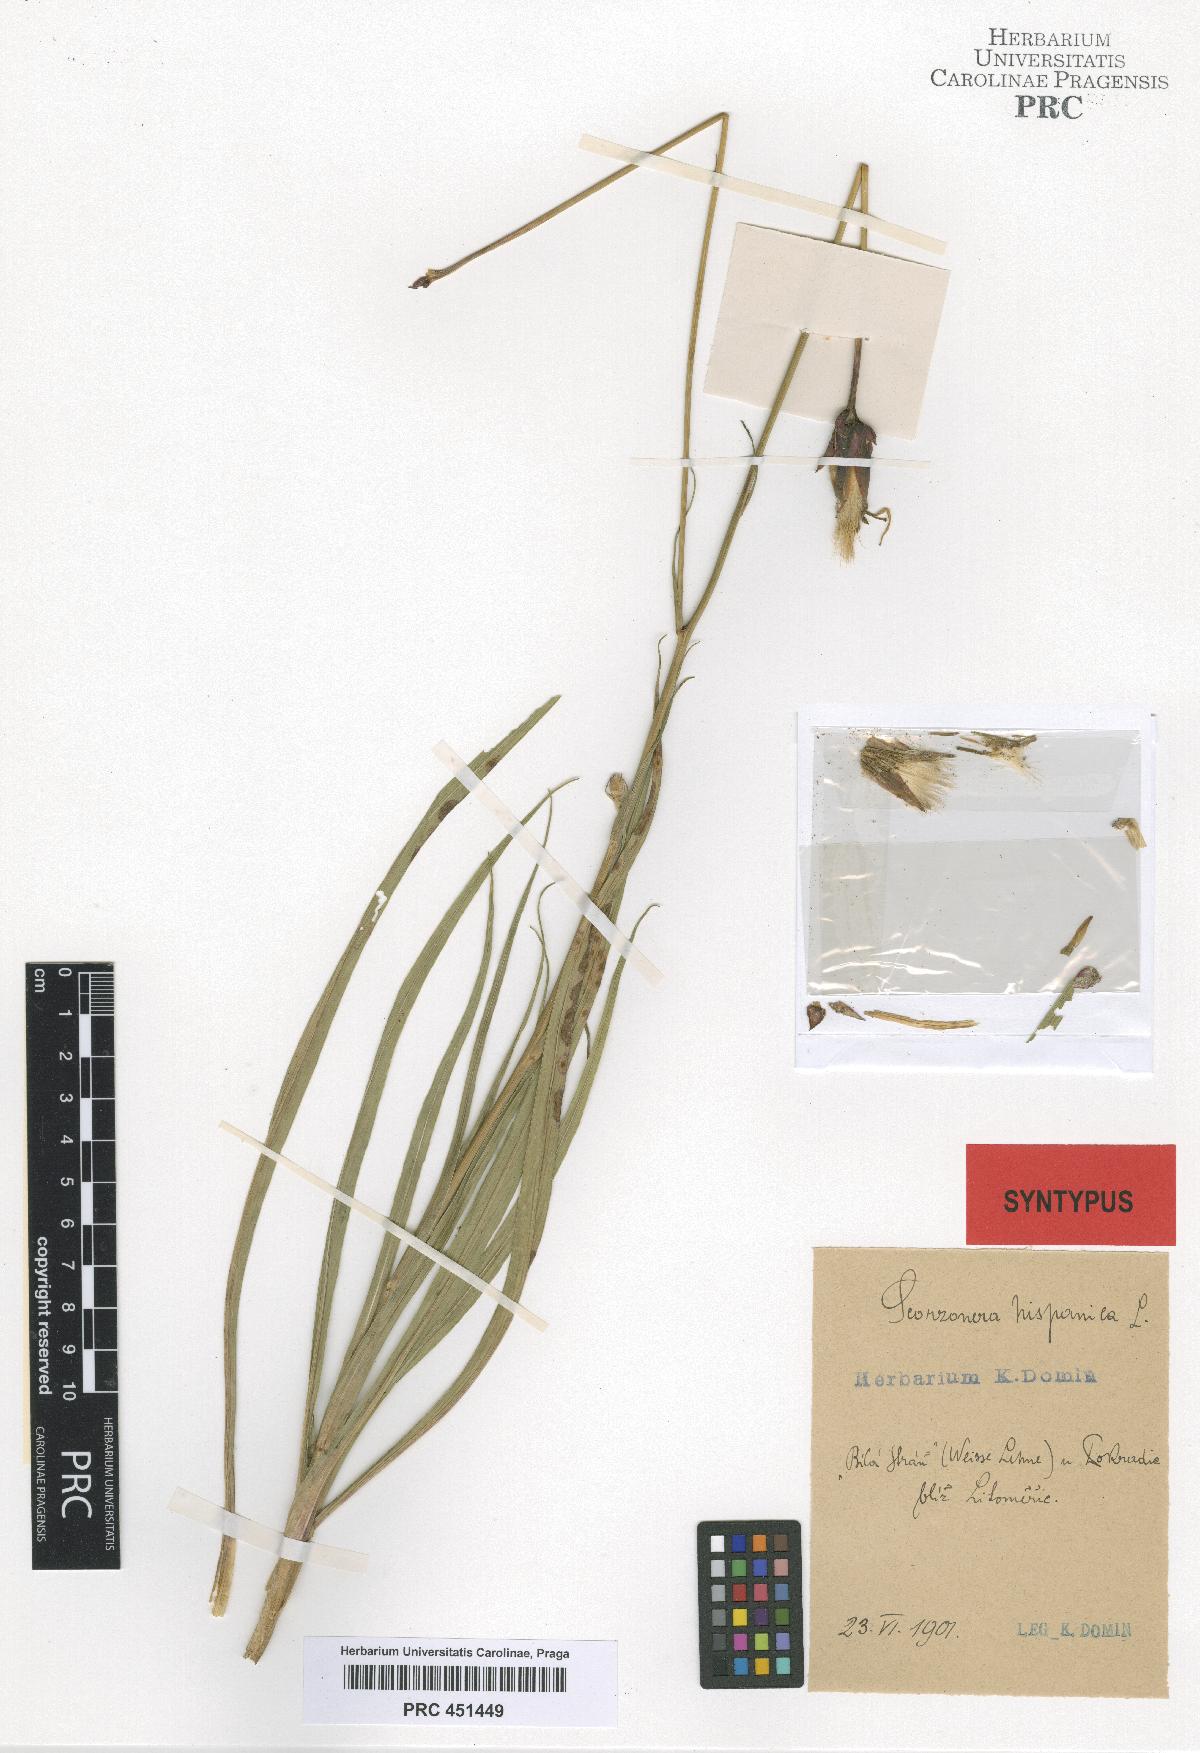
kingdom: Plantae
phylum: Tracheophyta
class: Magnoliopsida
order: Asterales
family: Asteraceae
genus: Pseudopodospermum
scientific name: Pseudopodospermum hispanicum
